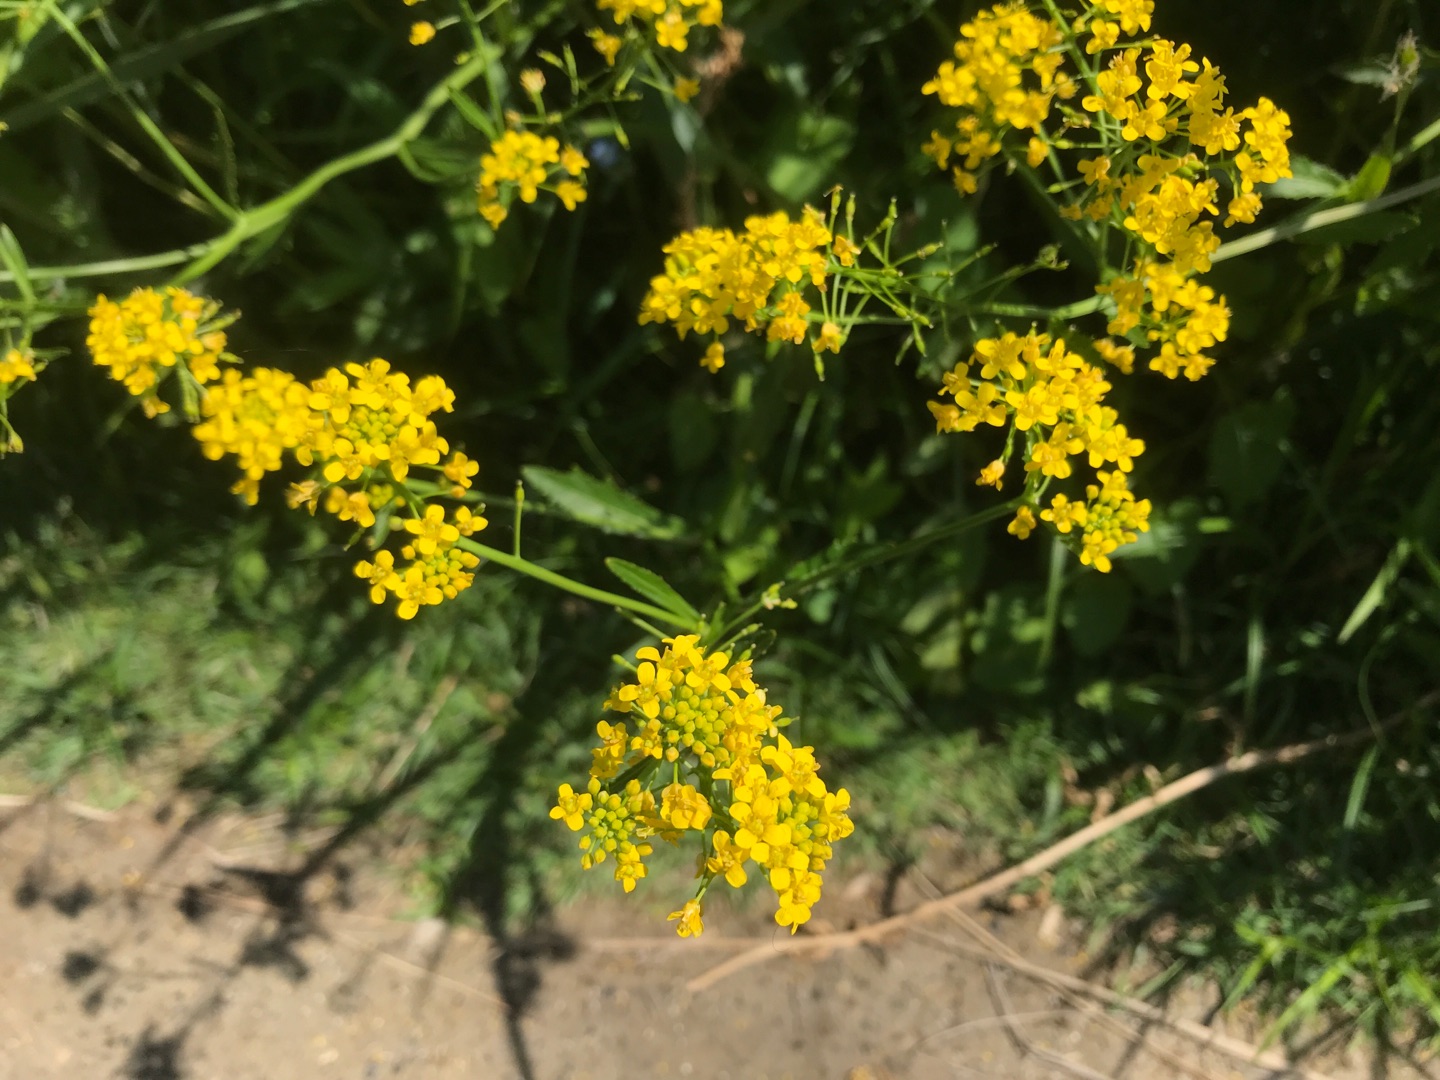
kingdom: Plantae
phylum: Tracheophyta
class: Magnoliopsida
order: Brassicales
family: Brassicaceae
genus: Rorippa
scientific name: Rorippa amphibia
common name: Vandpeberrod
